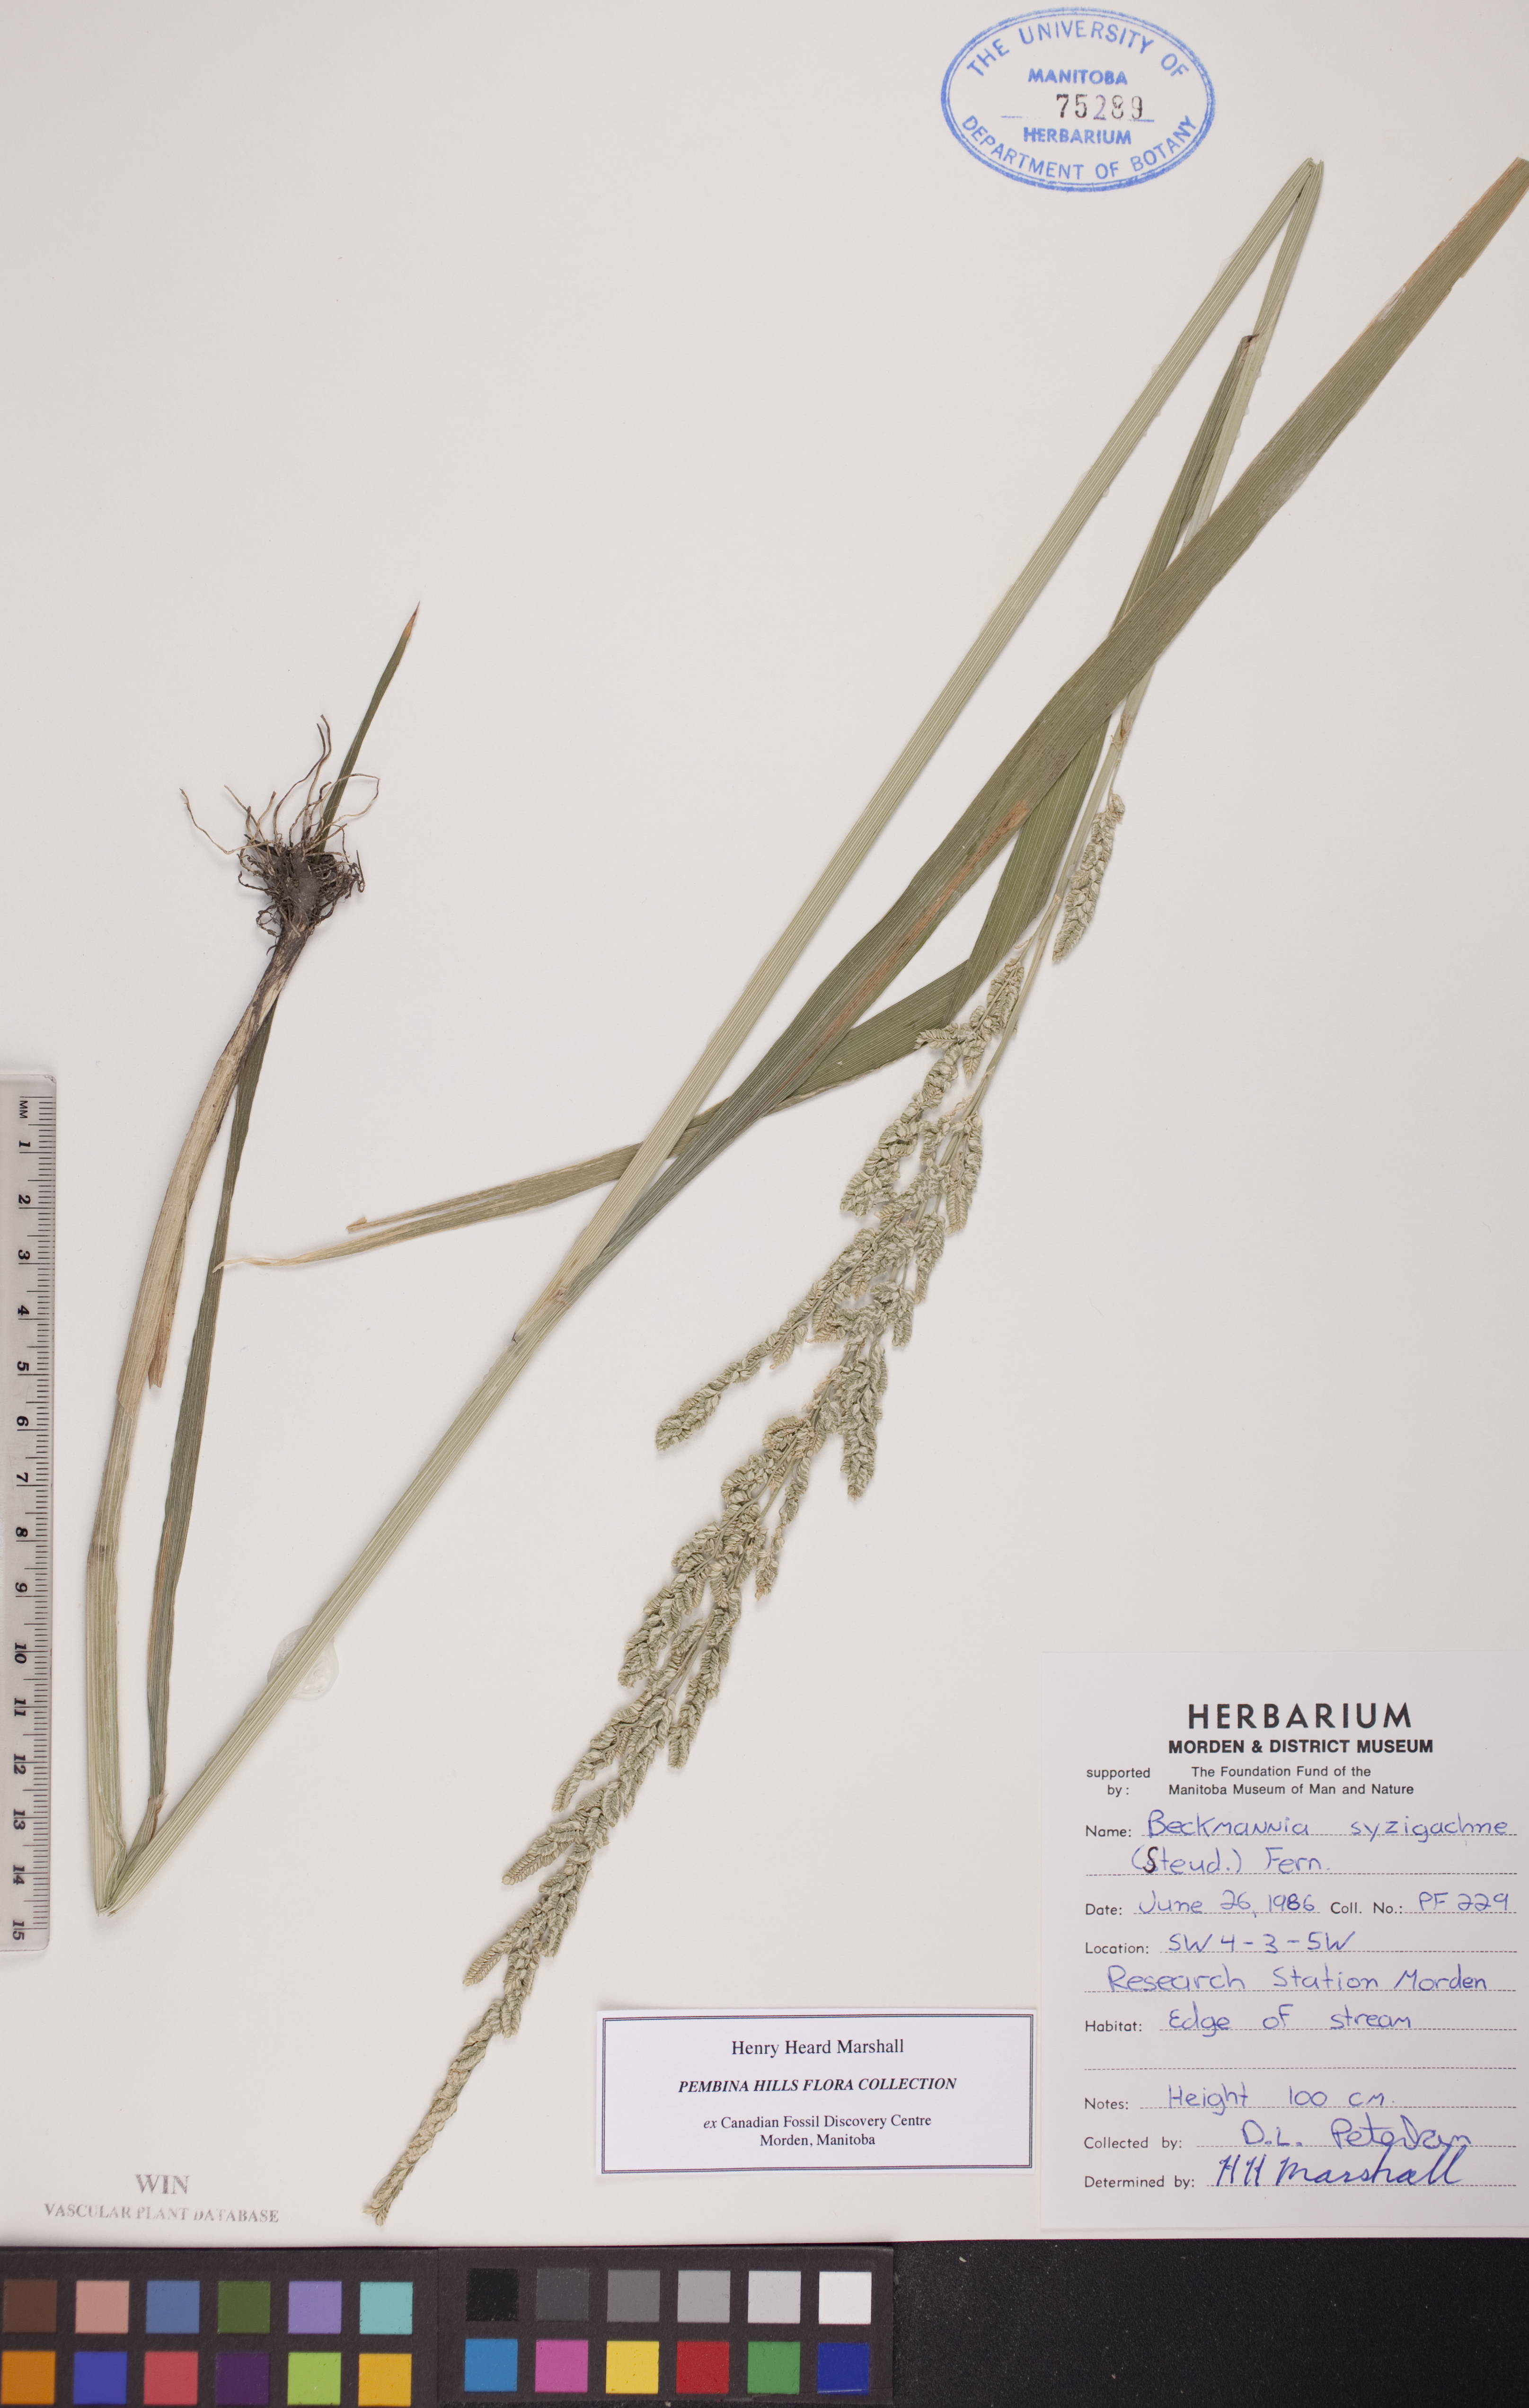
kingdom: Plantae
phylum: Tracheophyta
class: Liliopsida
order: Poales
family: Poaceae
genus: Beckmannia
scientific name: Beckmannia syzigachne
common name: American slough-grass
